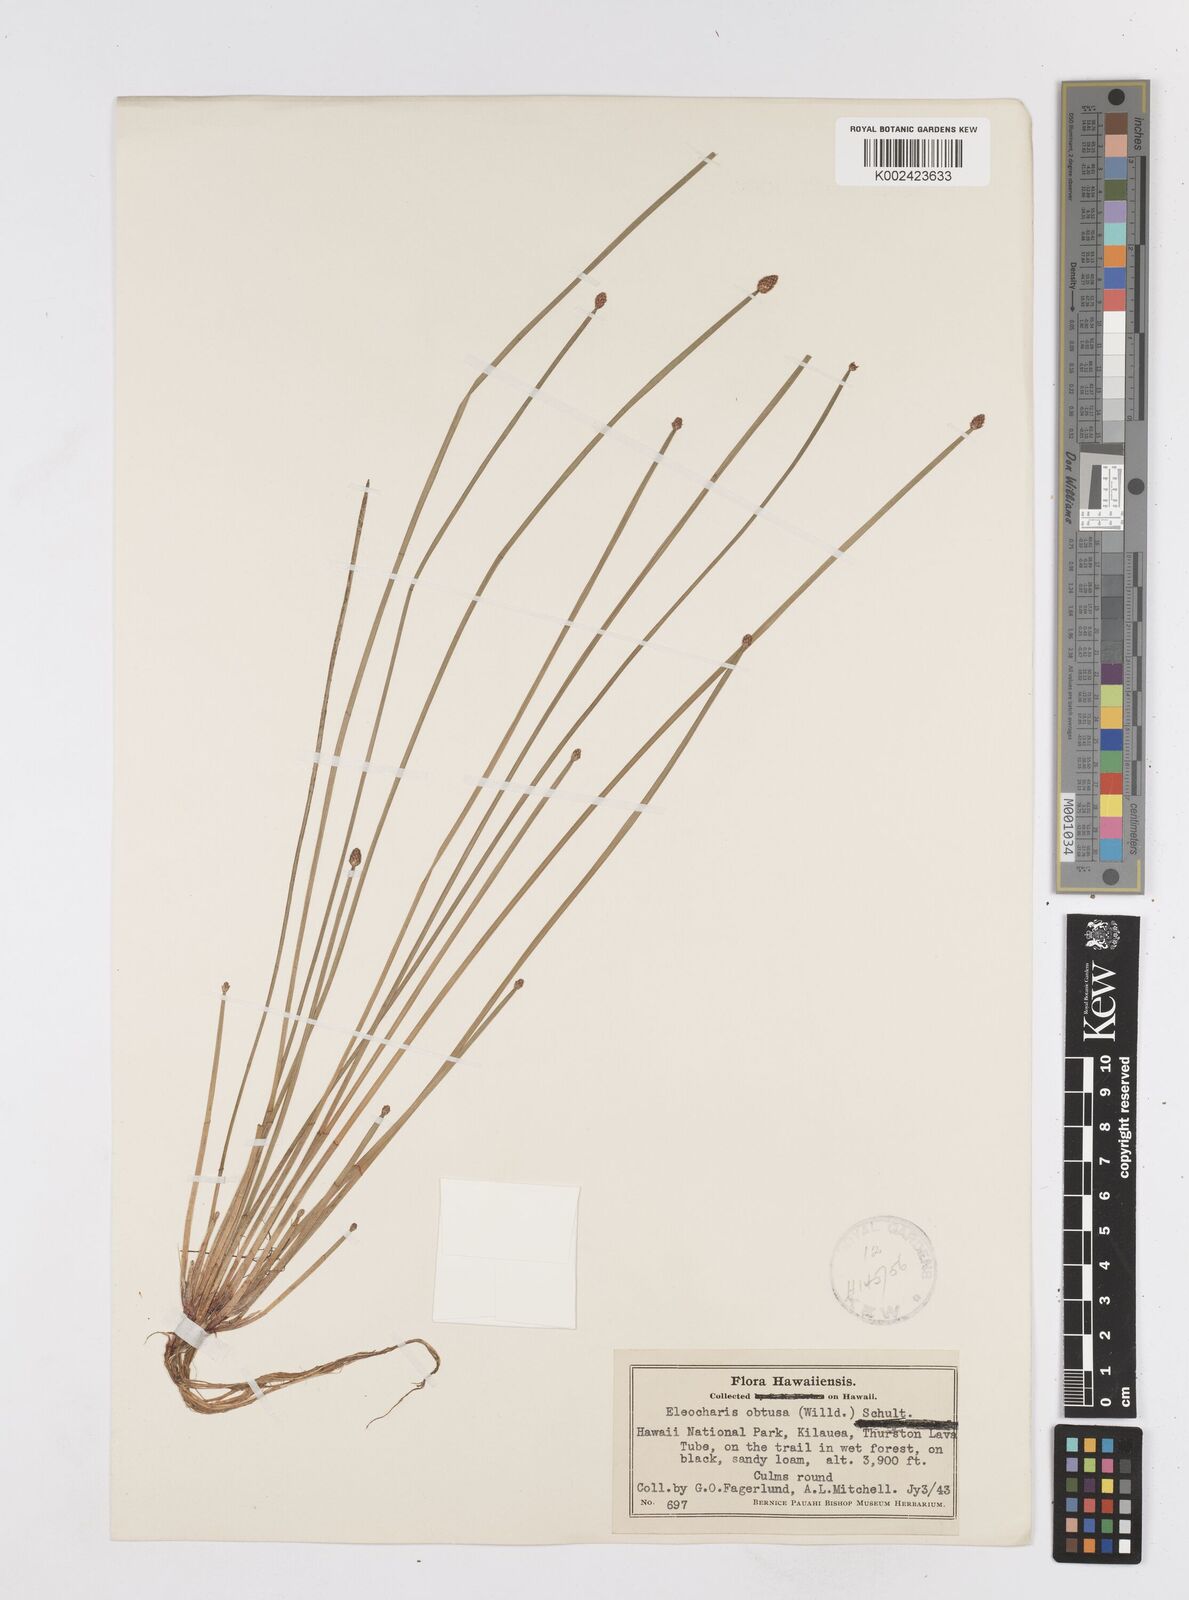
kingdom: Plantae
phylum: Tracheophyta
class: Liliopsida
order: Poales
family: Cyperaceae
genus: Eleocharis
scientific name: Eleocharis obtusa
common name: Blunt spikerush
